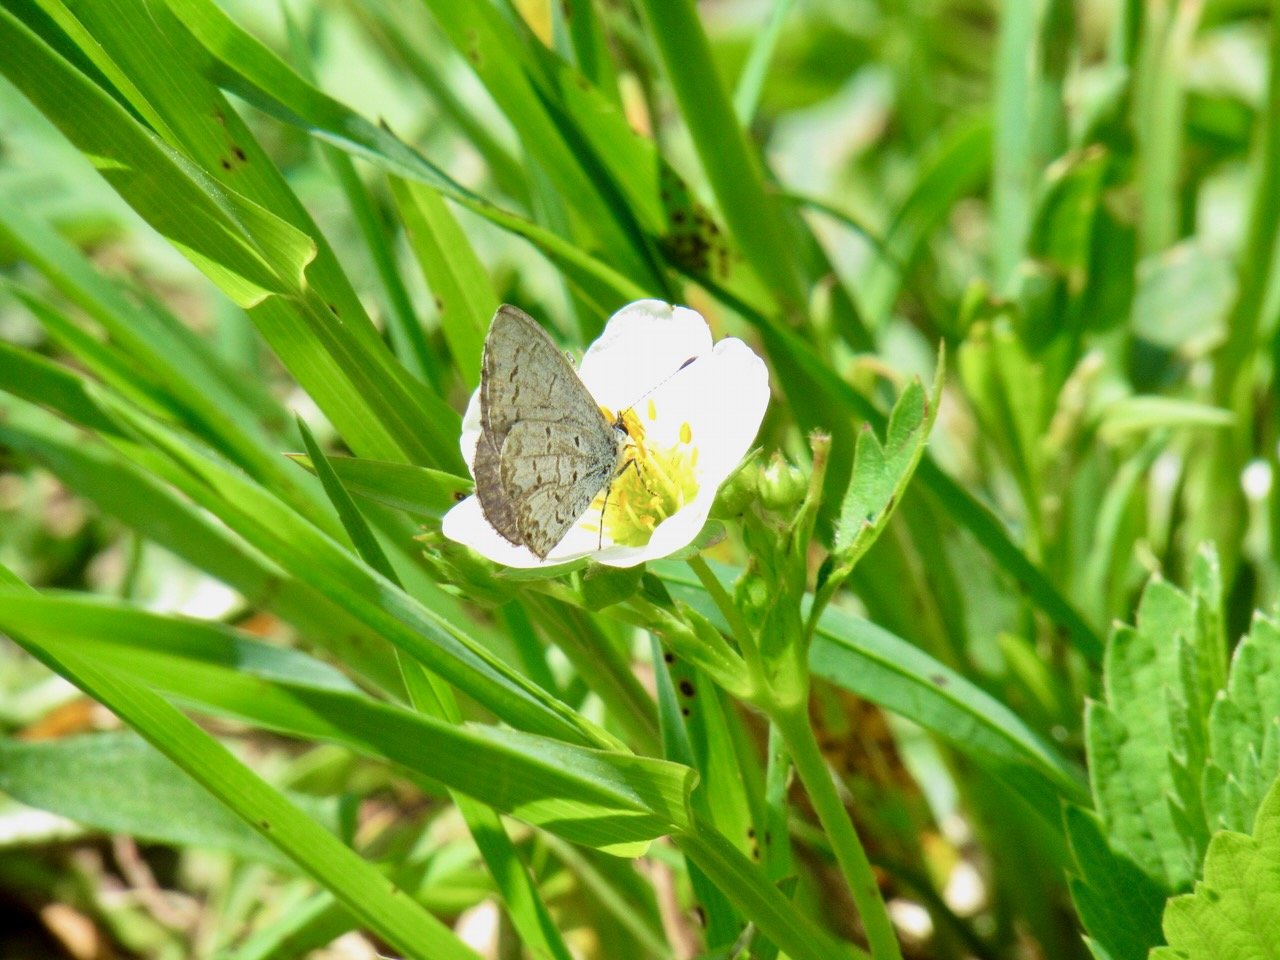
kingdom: Animalia
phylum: Arthropoda
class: Insecta
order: Lepidoptera
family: Lycaenidae
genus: Celastrina
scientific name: Celastrina lucia
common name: Northern Spring Azure
